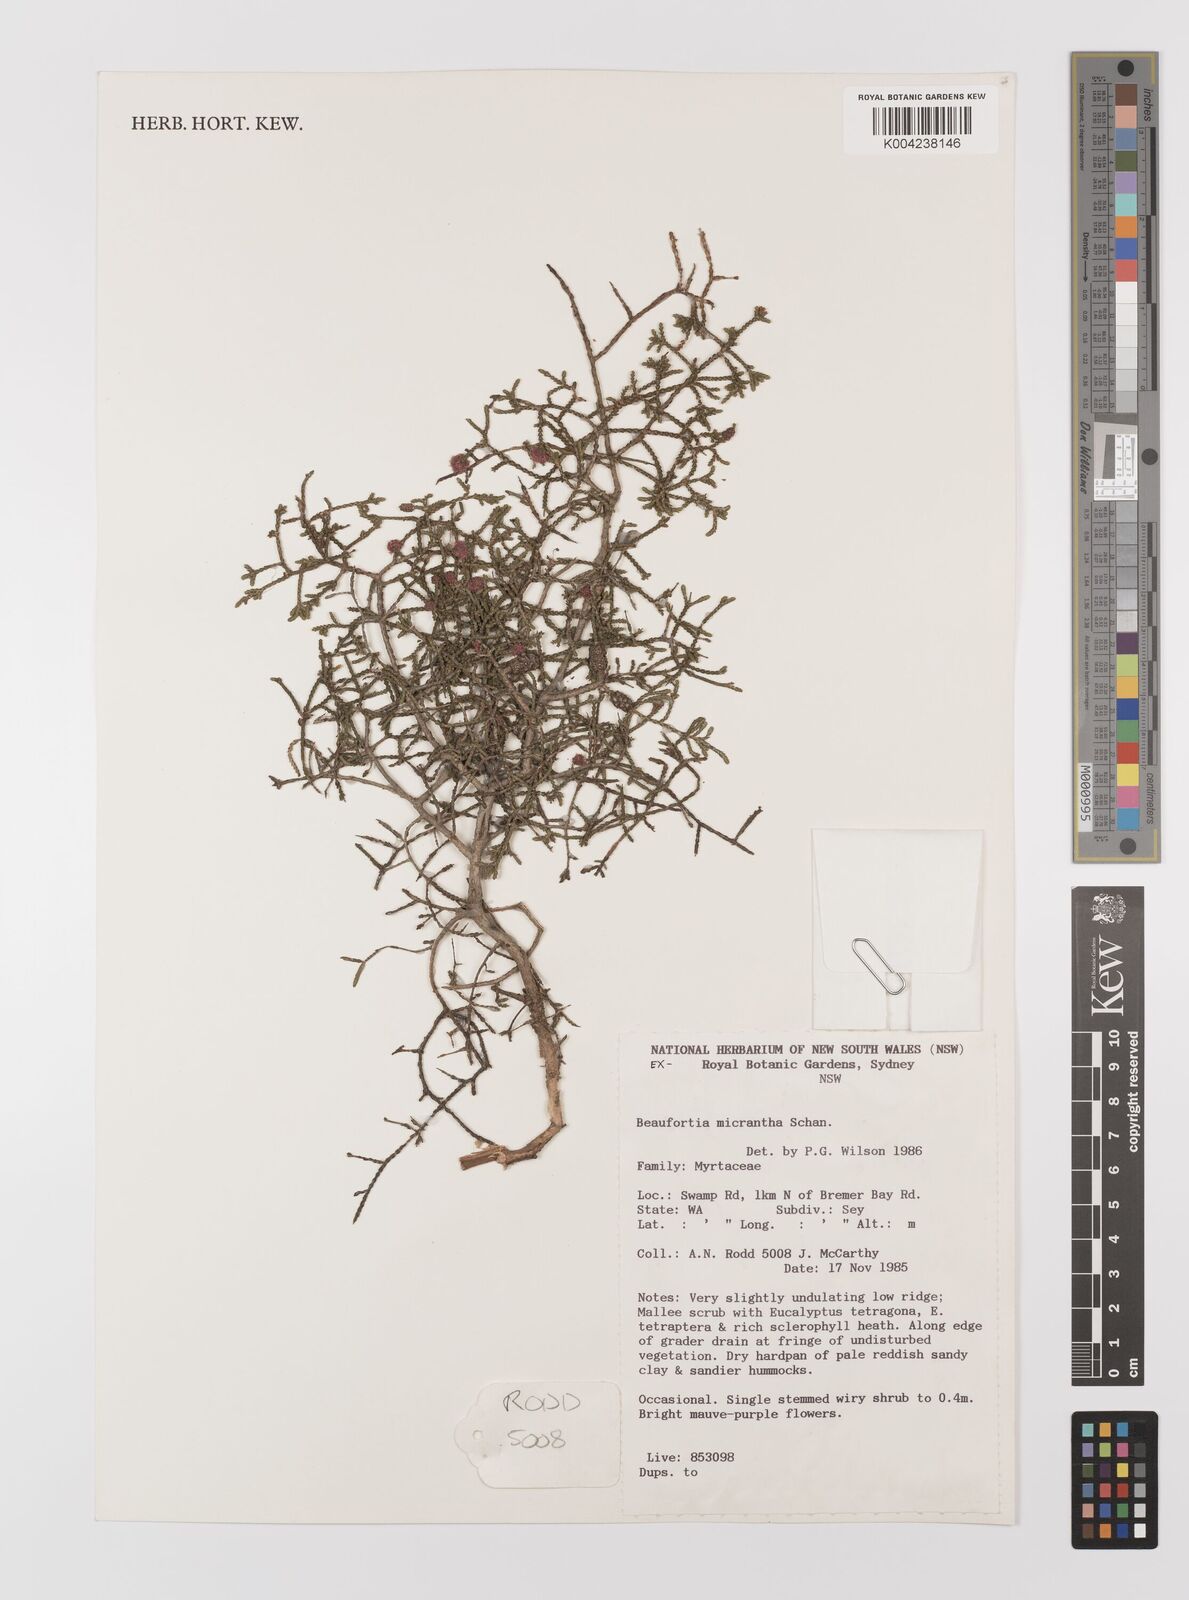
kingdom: Plantae
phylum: Tracheophyta
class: Magnoliopsida
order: Myrtales
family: Myrtaceae
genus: Melaleuca
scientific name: Melaleuca micrantha
